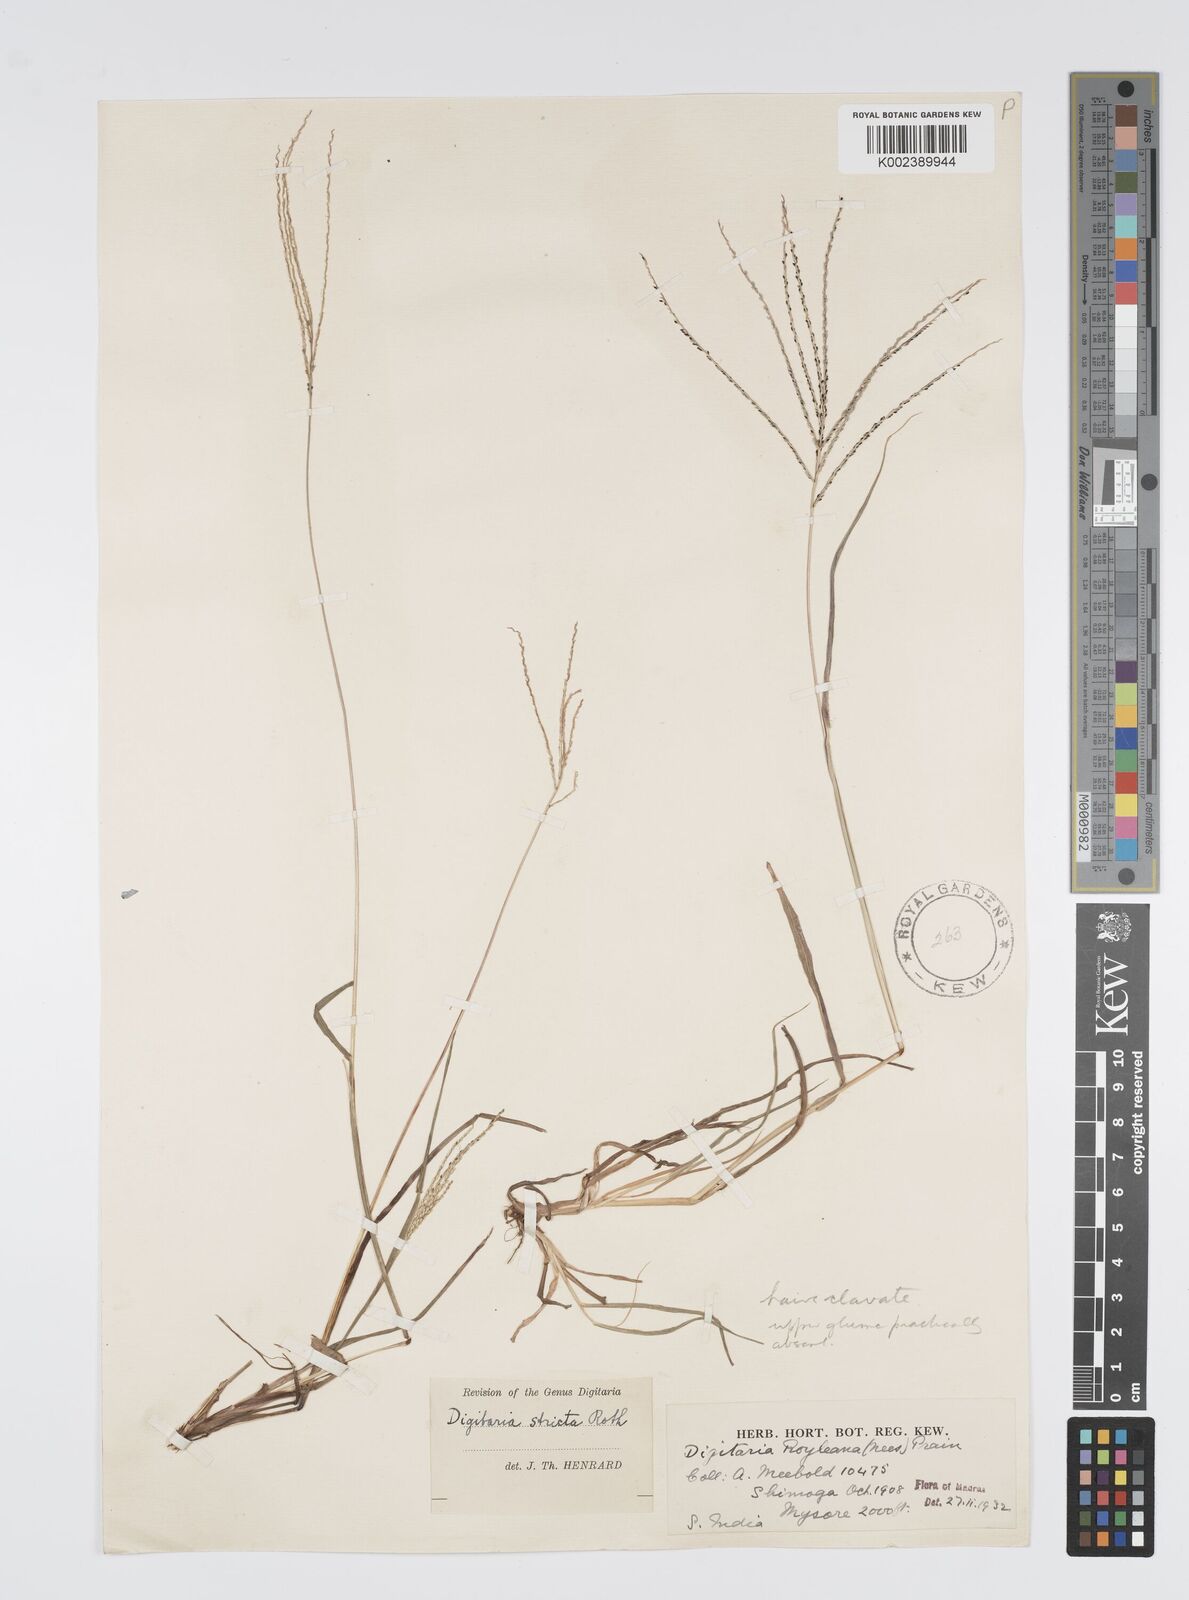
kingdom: Plantae
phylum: Tracheophyta
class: Liliopsida
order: Poales
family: Poaceae
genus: Digitaria
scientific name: Digitaria stricta
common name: Crabgrass
